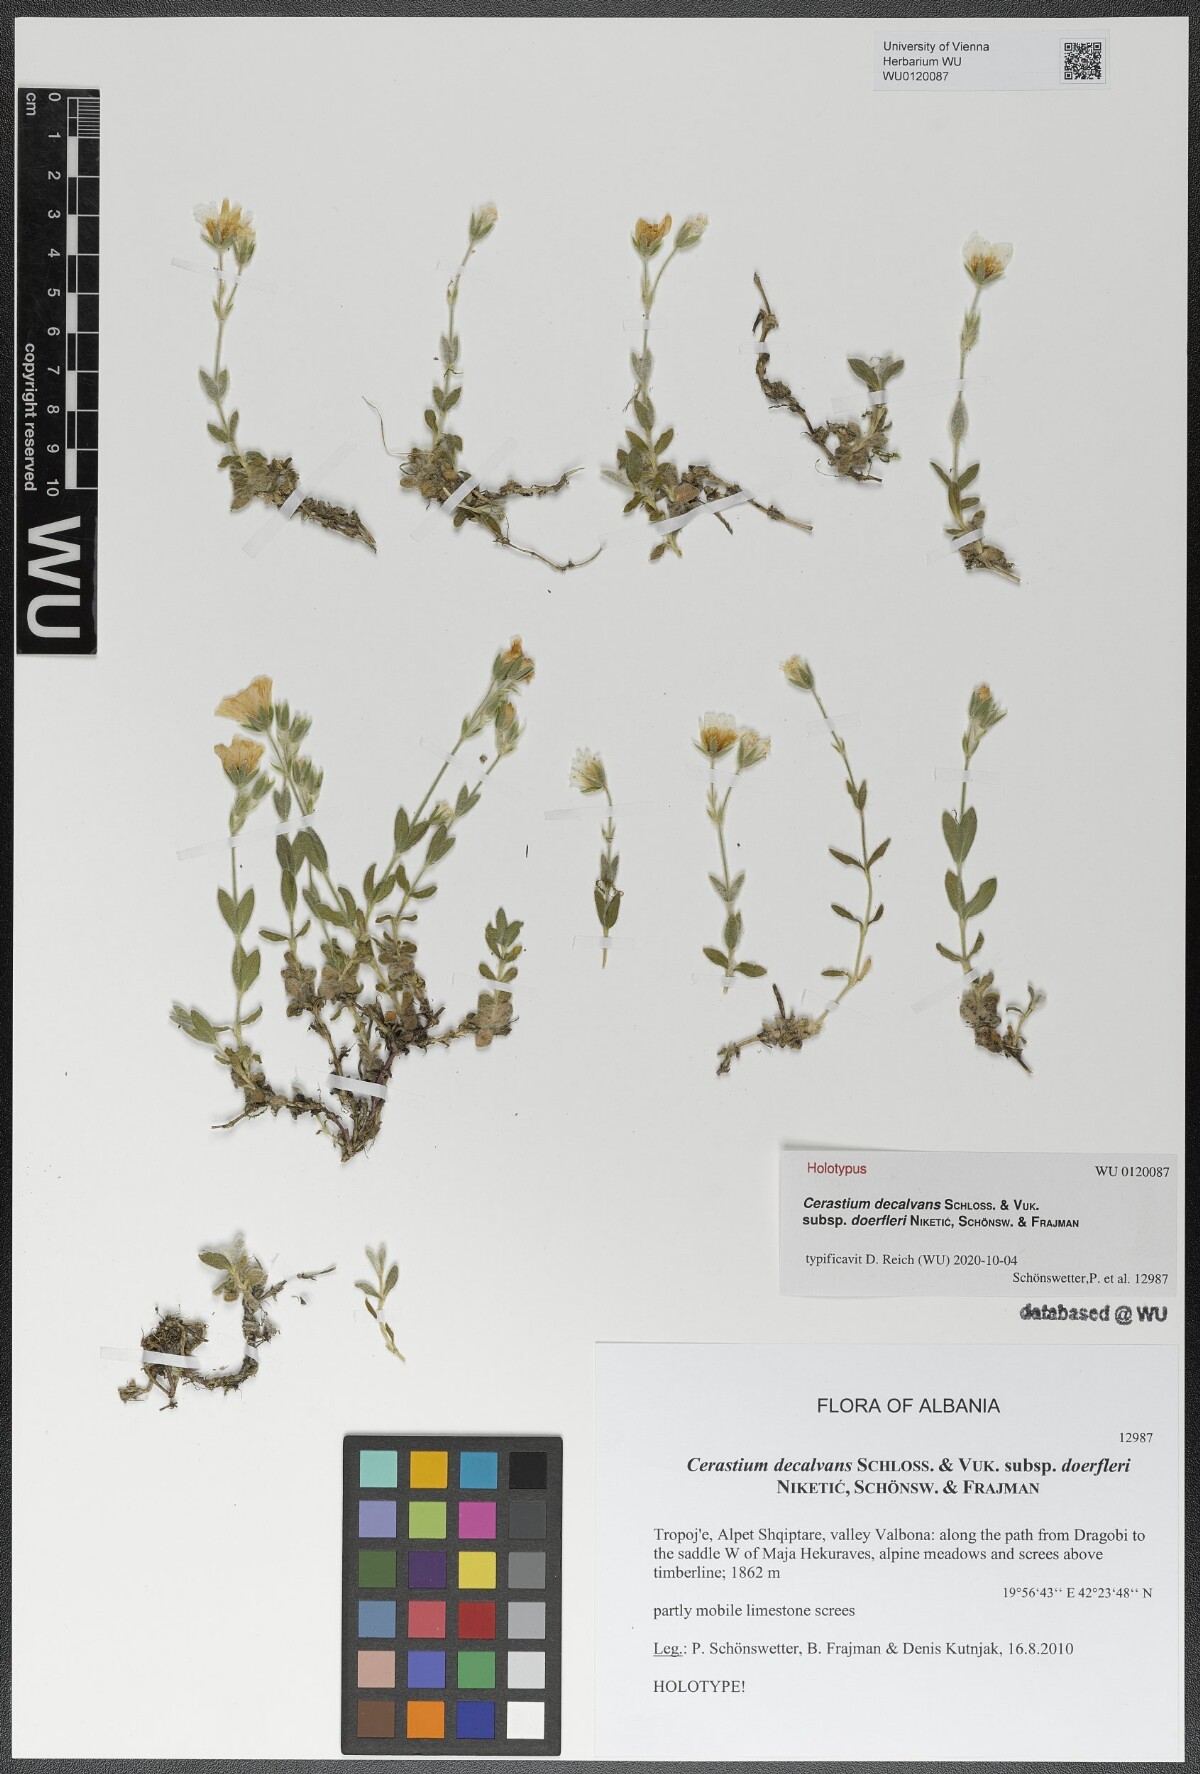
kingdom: Plantae
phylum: Tracheophyta
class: Magnoliopsida
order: Caryophyllales
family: Caryophyllaceae
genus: Cerastium
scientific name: Cerastium decalvans
